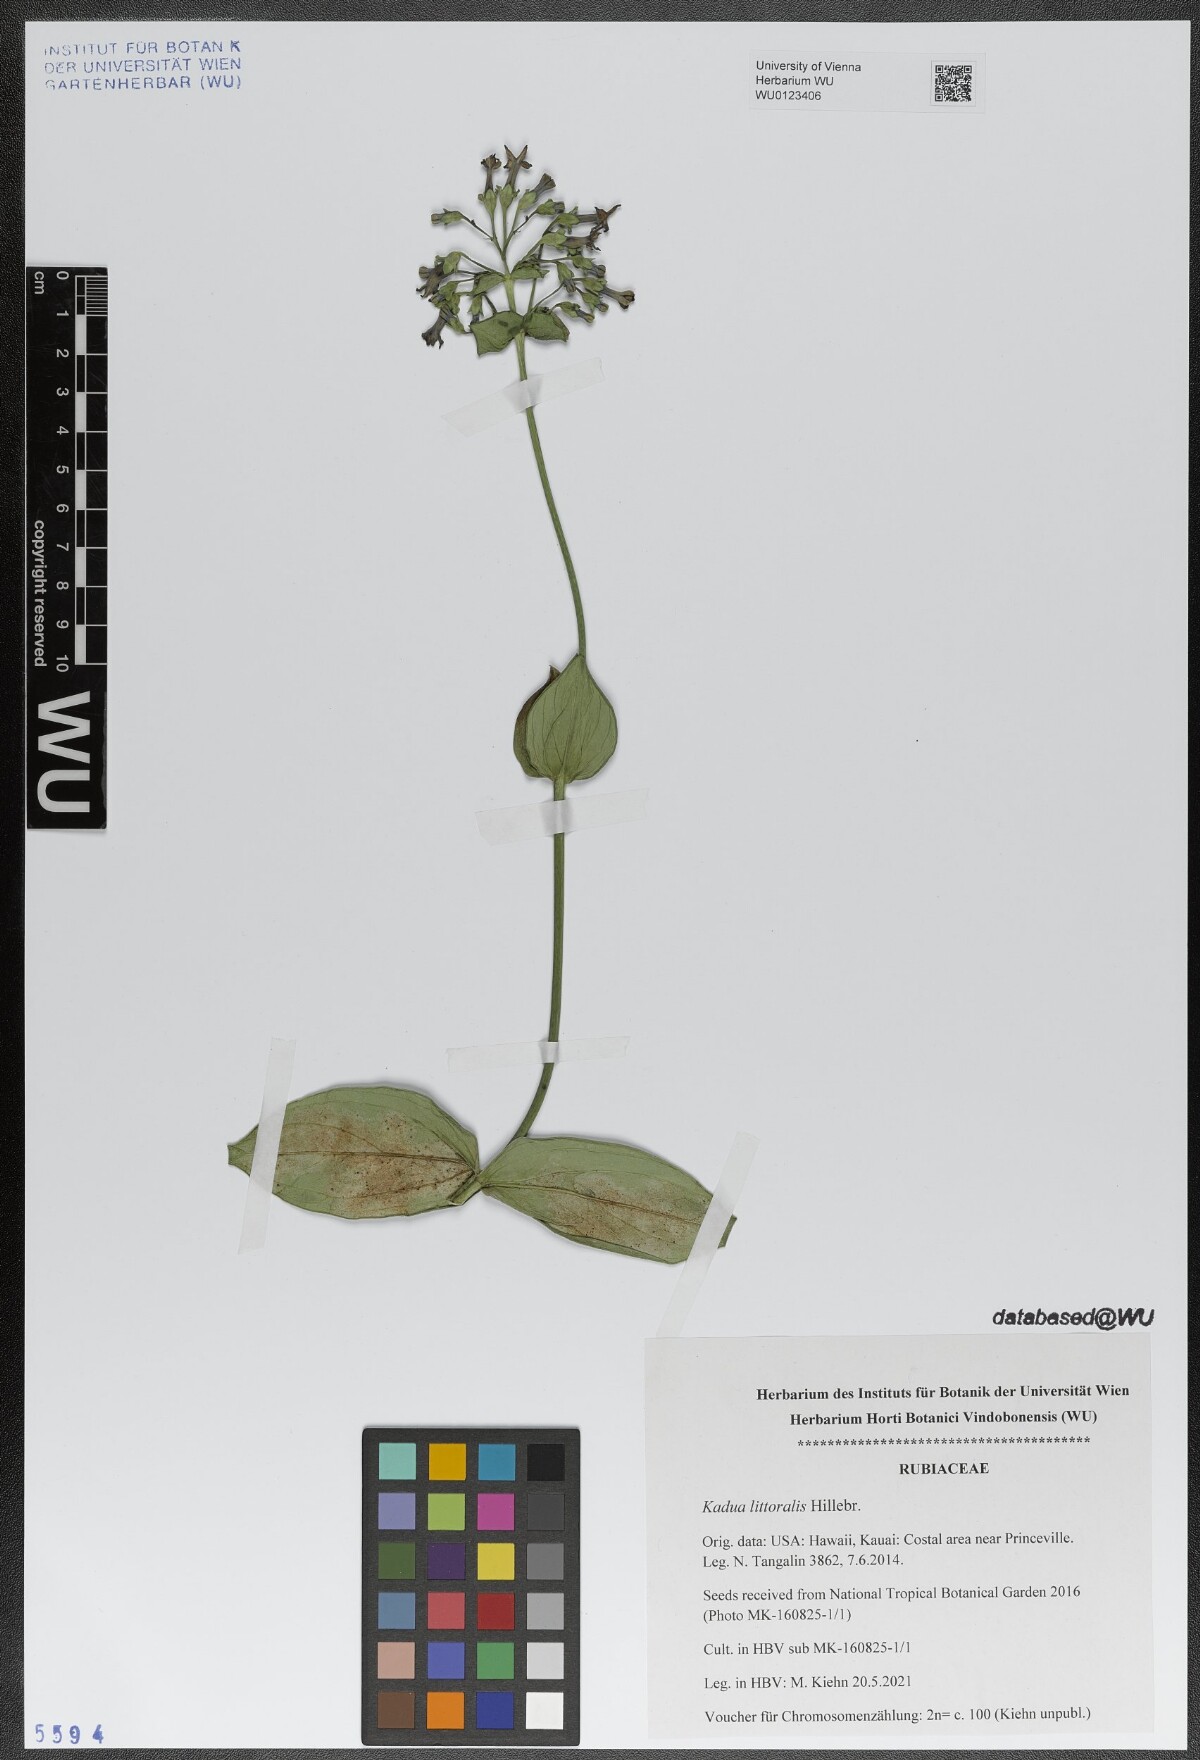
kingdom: Plantae
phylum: Tracheophyta
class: Magnoliopsida
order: Gentianales
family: Rubiaceae
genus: Kadua
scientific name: Kadua littoralis
